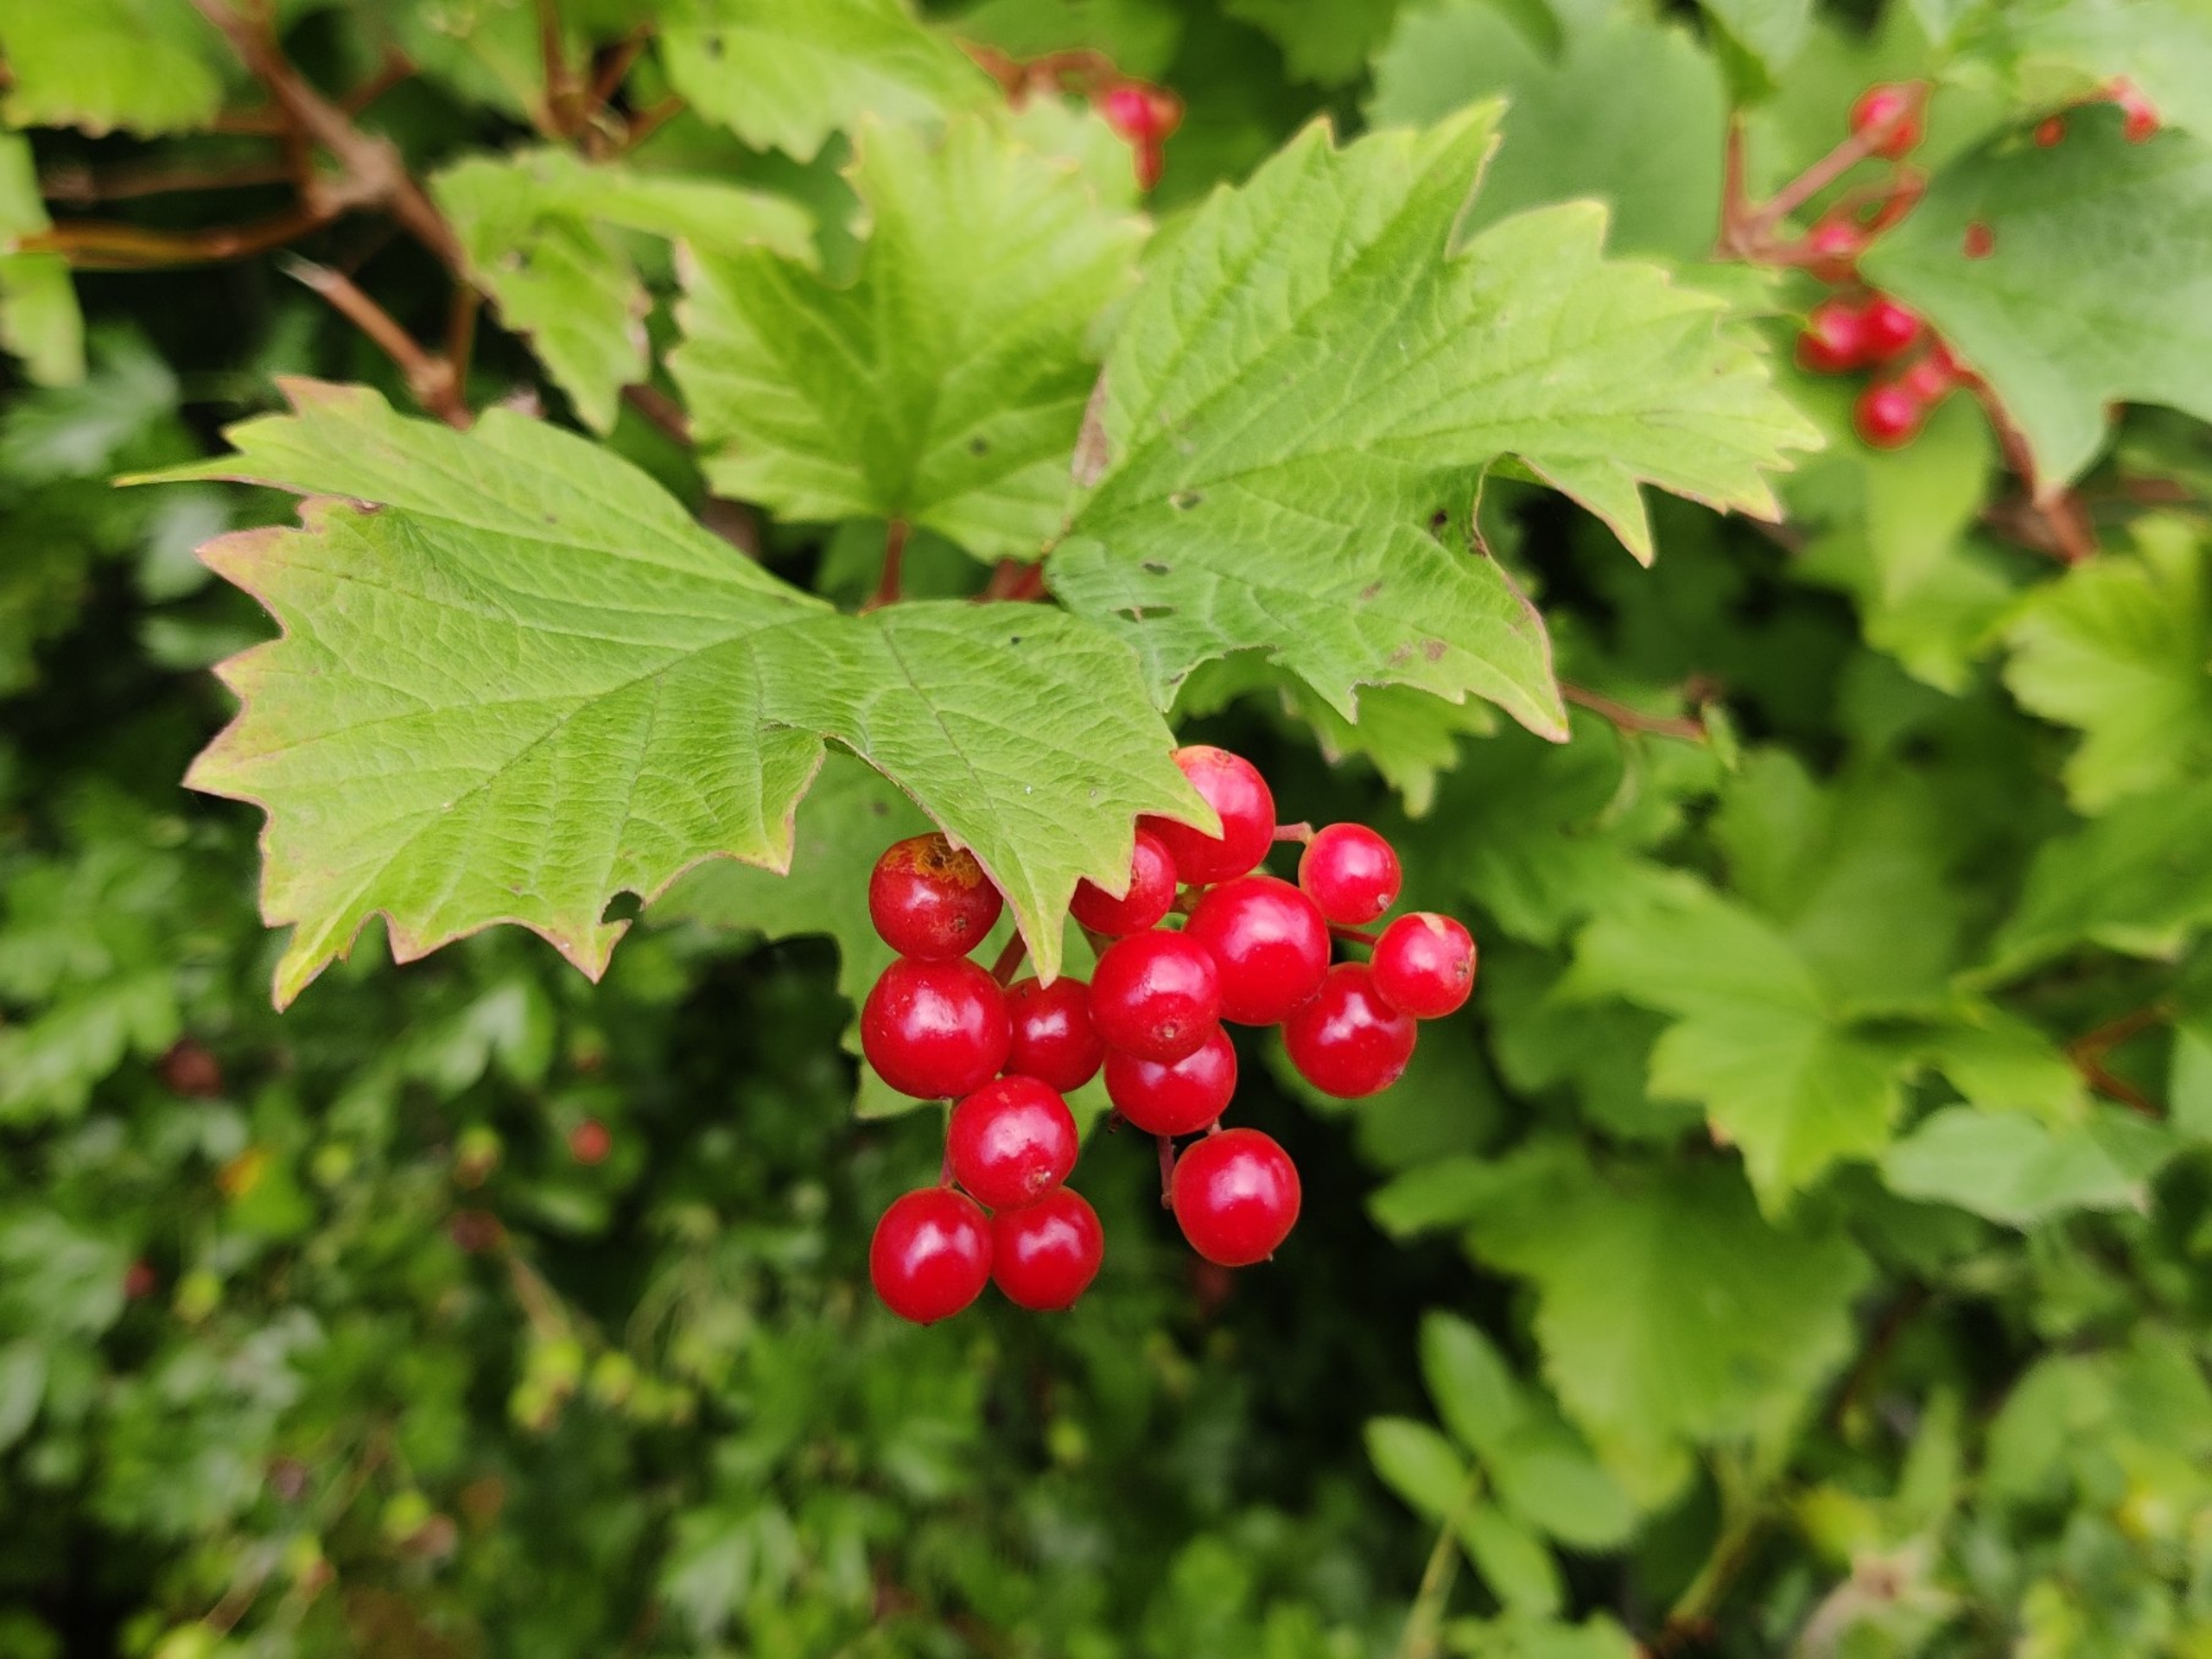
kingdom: Plantae
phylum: Tracheophyta
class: Magnoliopsida
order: Dipsacales
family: Viburnaceae
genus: Viburnum
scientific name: Viburnum opulus
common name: Kvalkved
